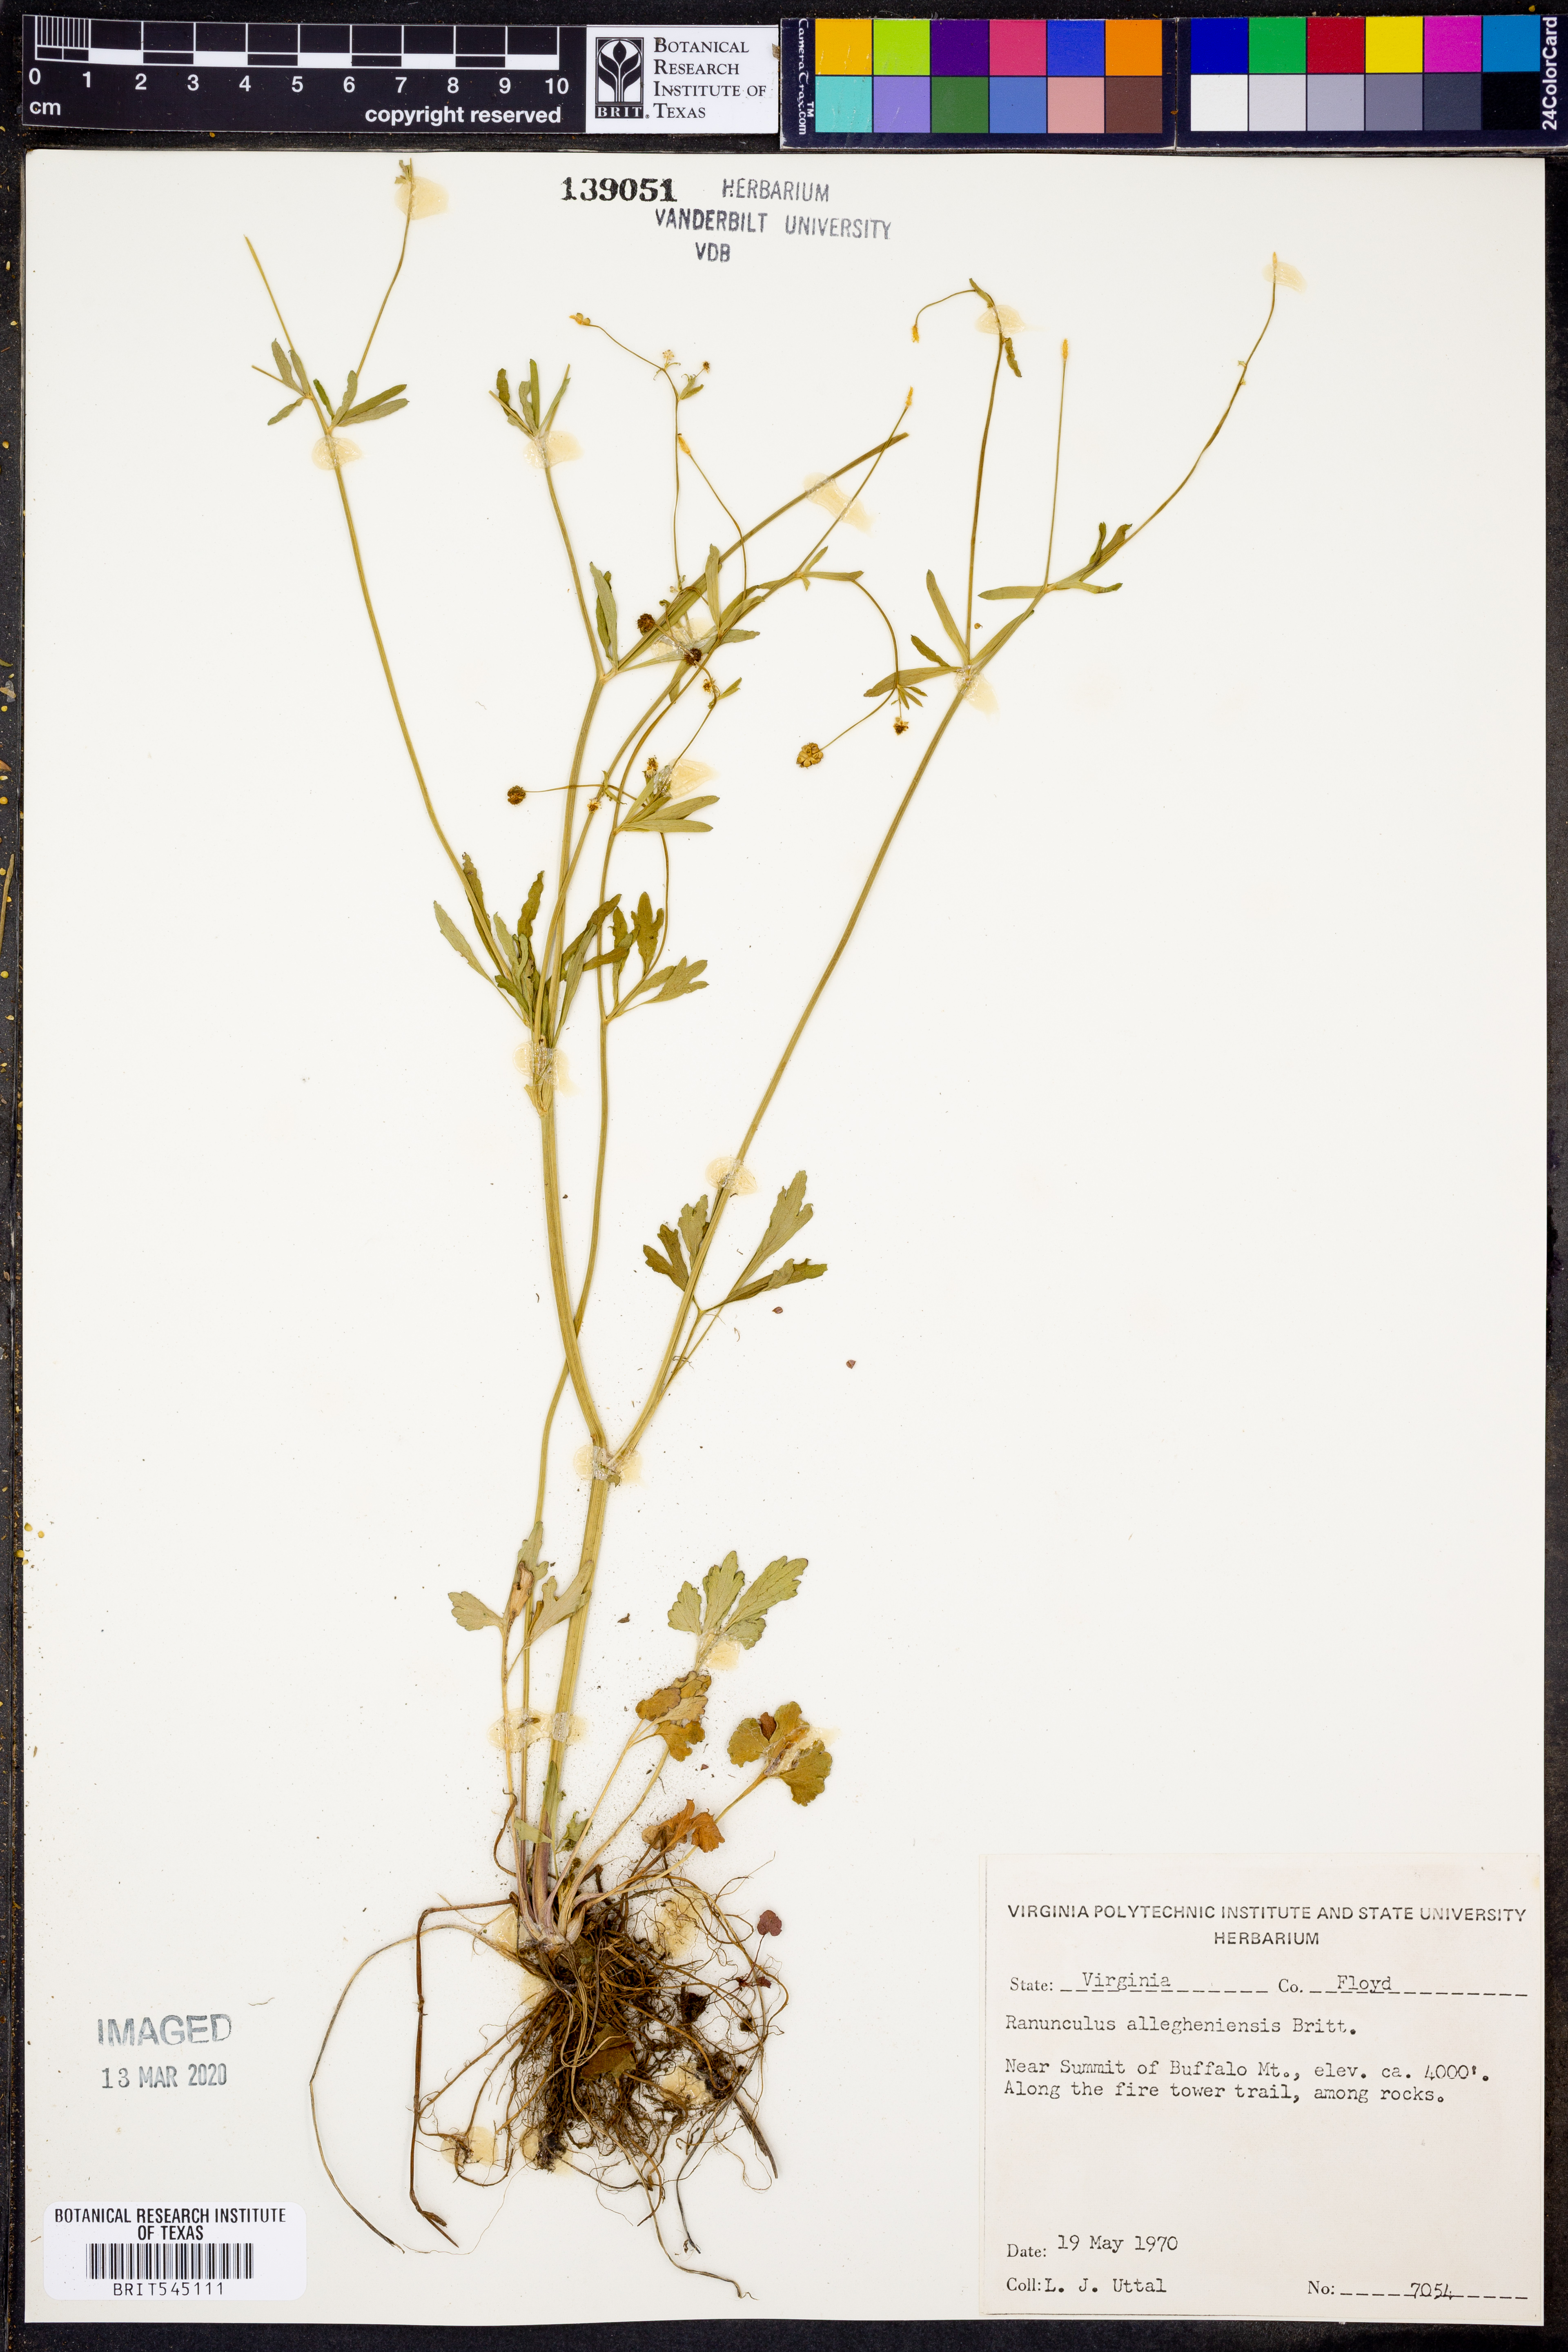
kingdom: Plantae
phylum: Tracheophyta
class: Magnoliopsida
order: Ranunculales
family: Ranunculaceae
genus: Ranunculus
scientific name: Ranunculus allegheniensis
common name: Allegheny mountain buttercup
